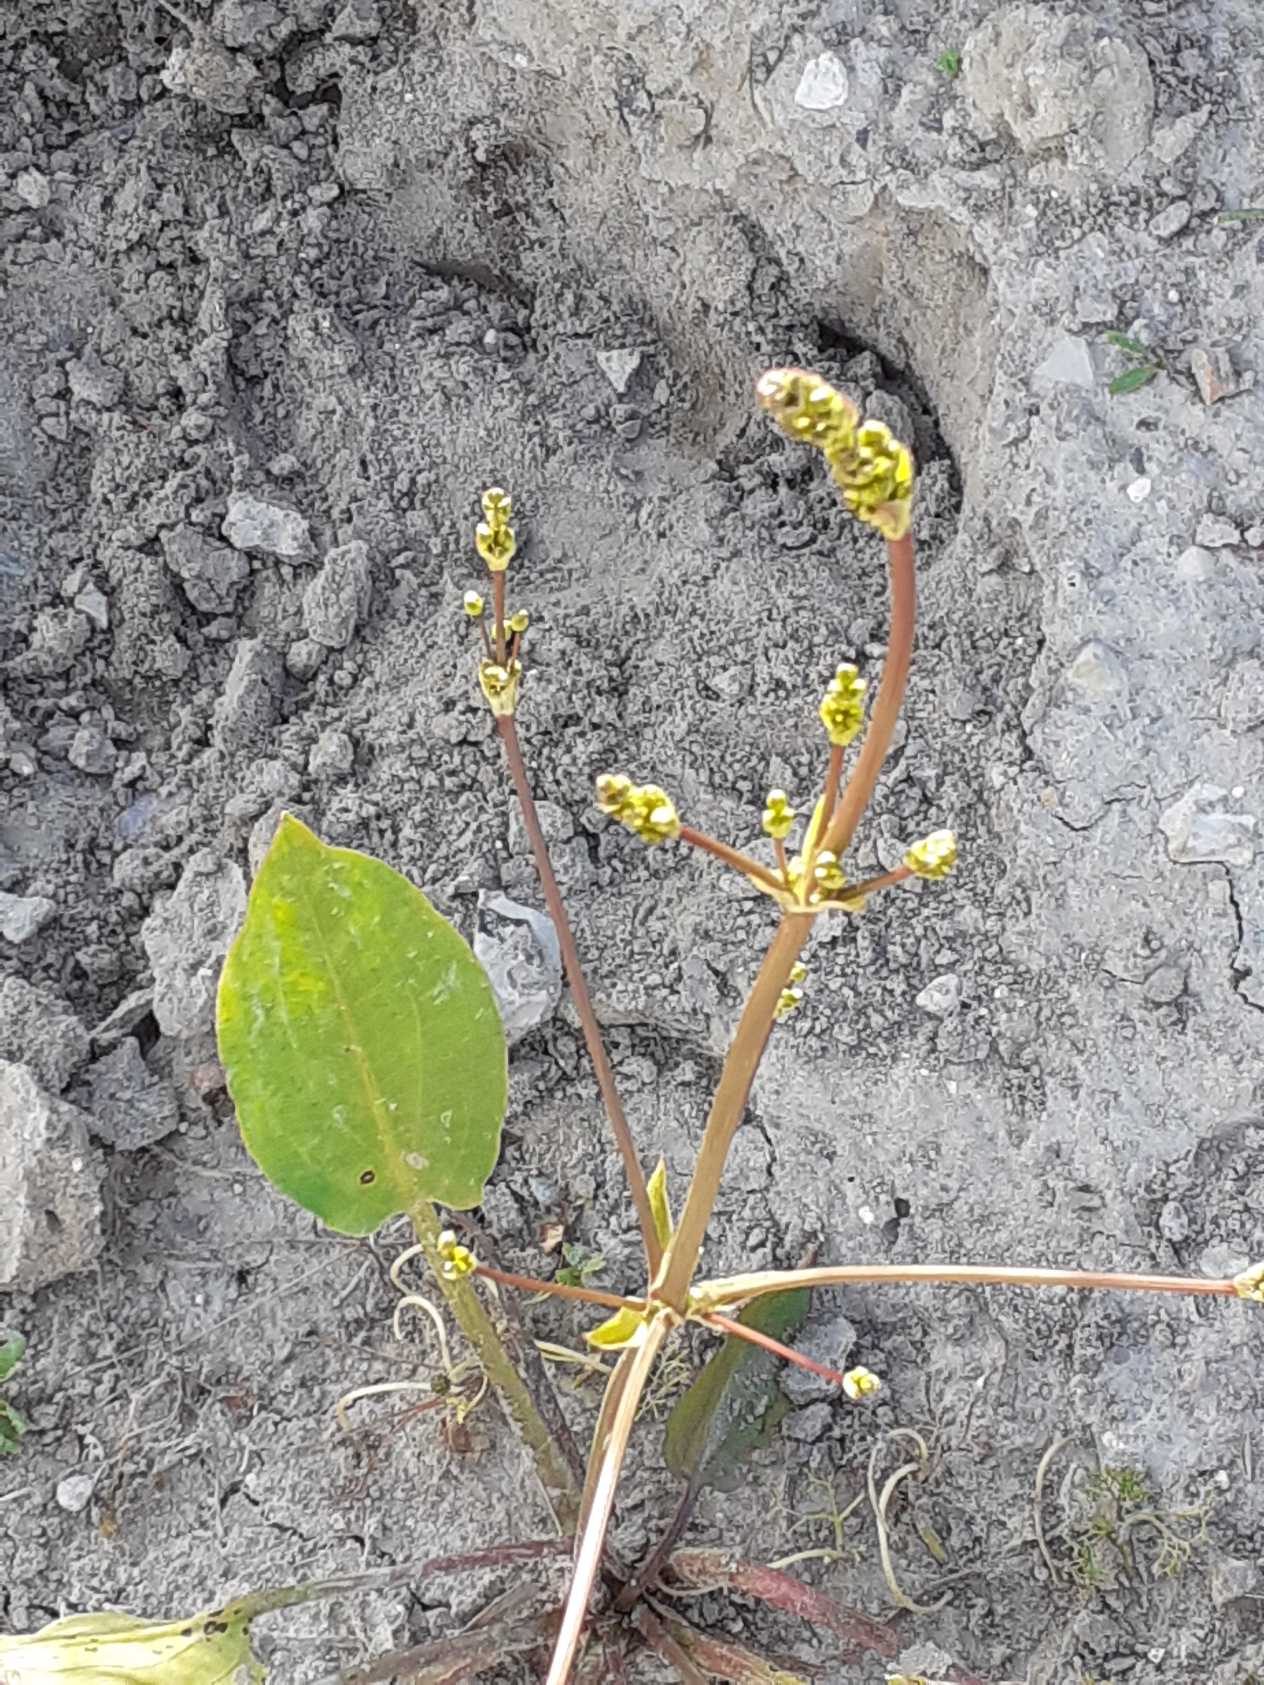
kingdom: Plantae
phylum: Tracheophyta
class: Liliopsida
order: Alismatales
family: Alismataceae
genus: Alisma
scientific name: Alisma plantago-aquatica
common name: Vejbred-skeblad
